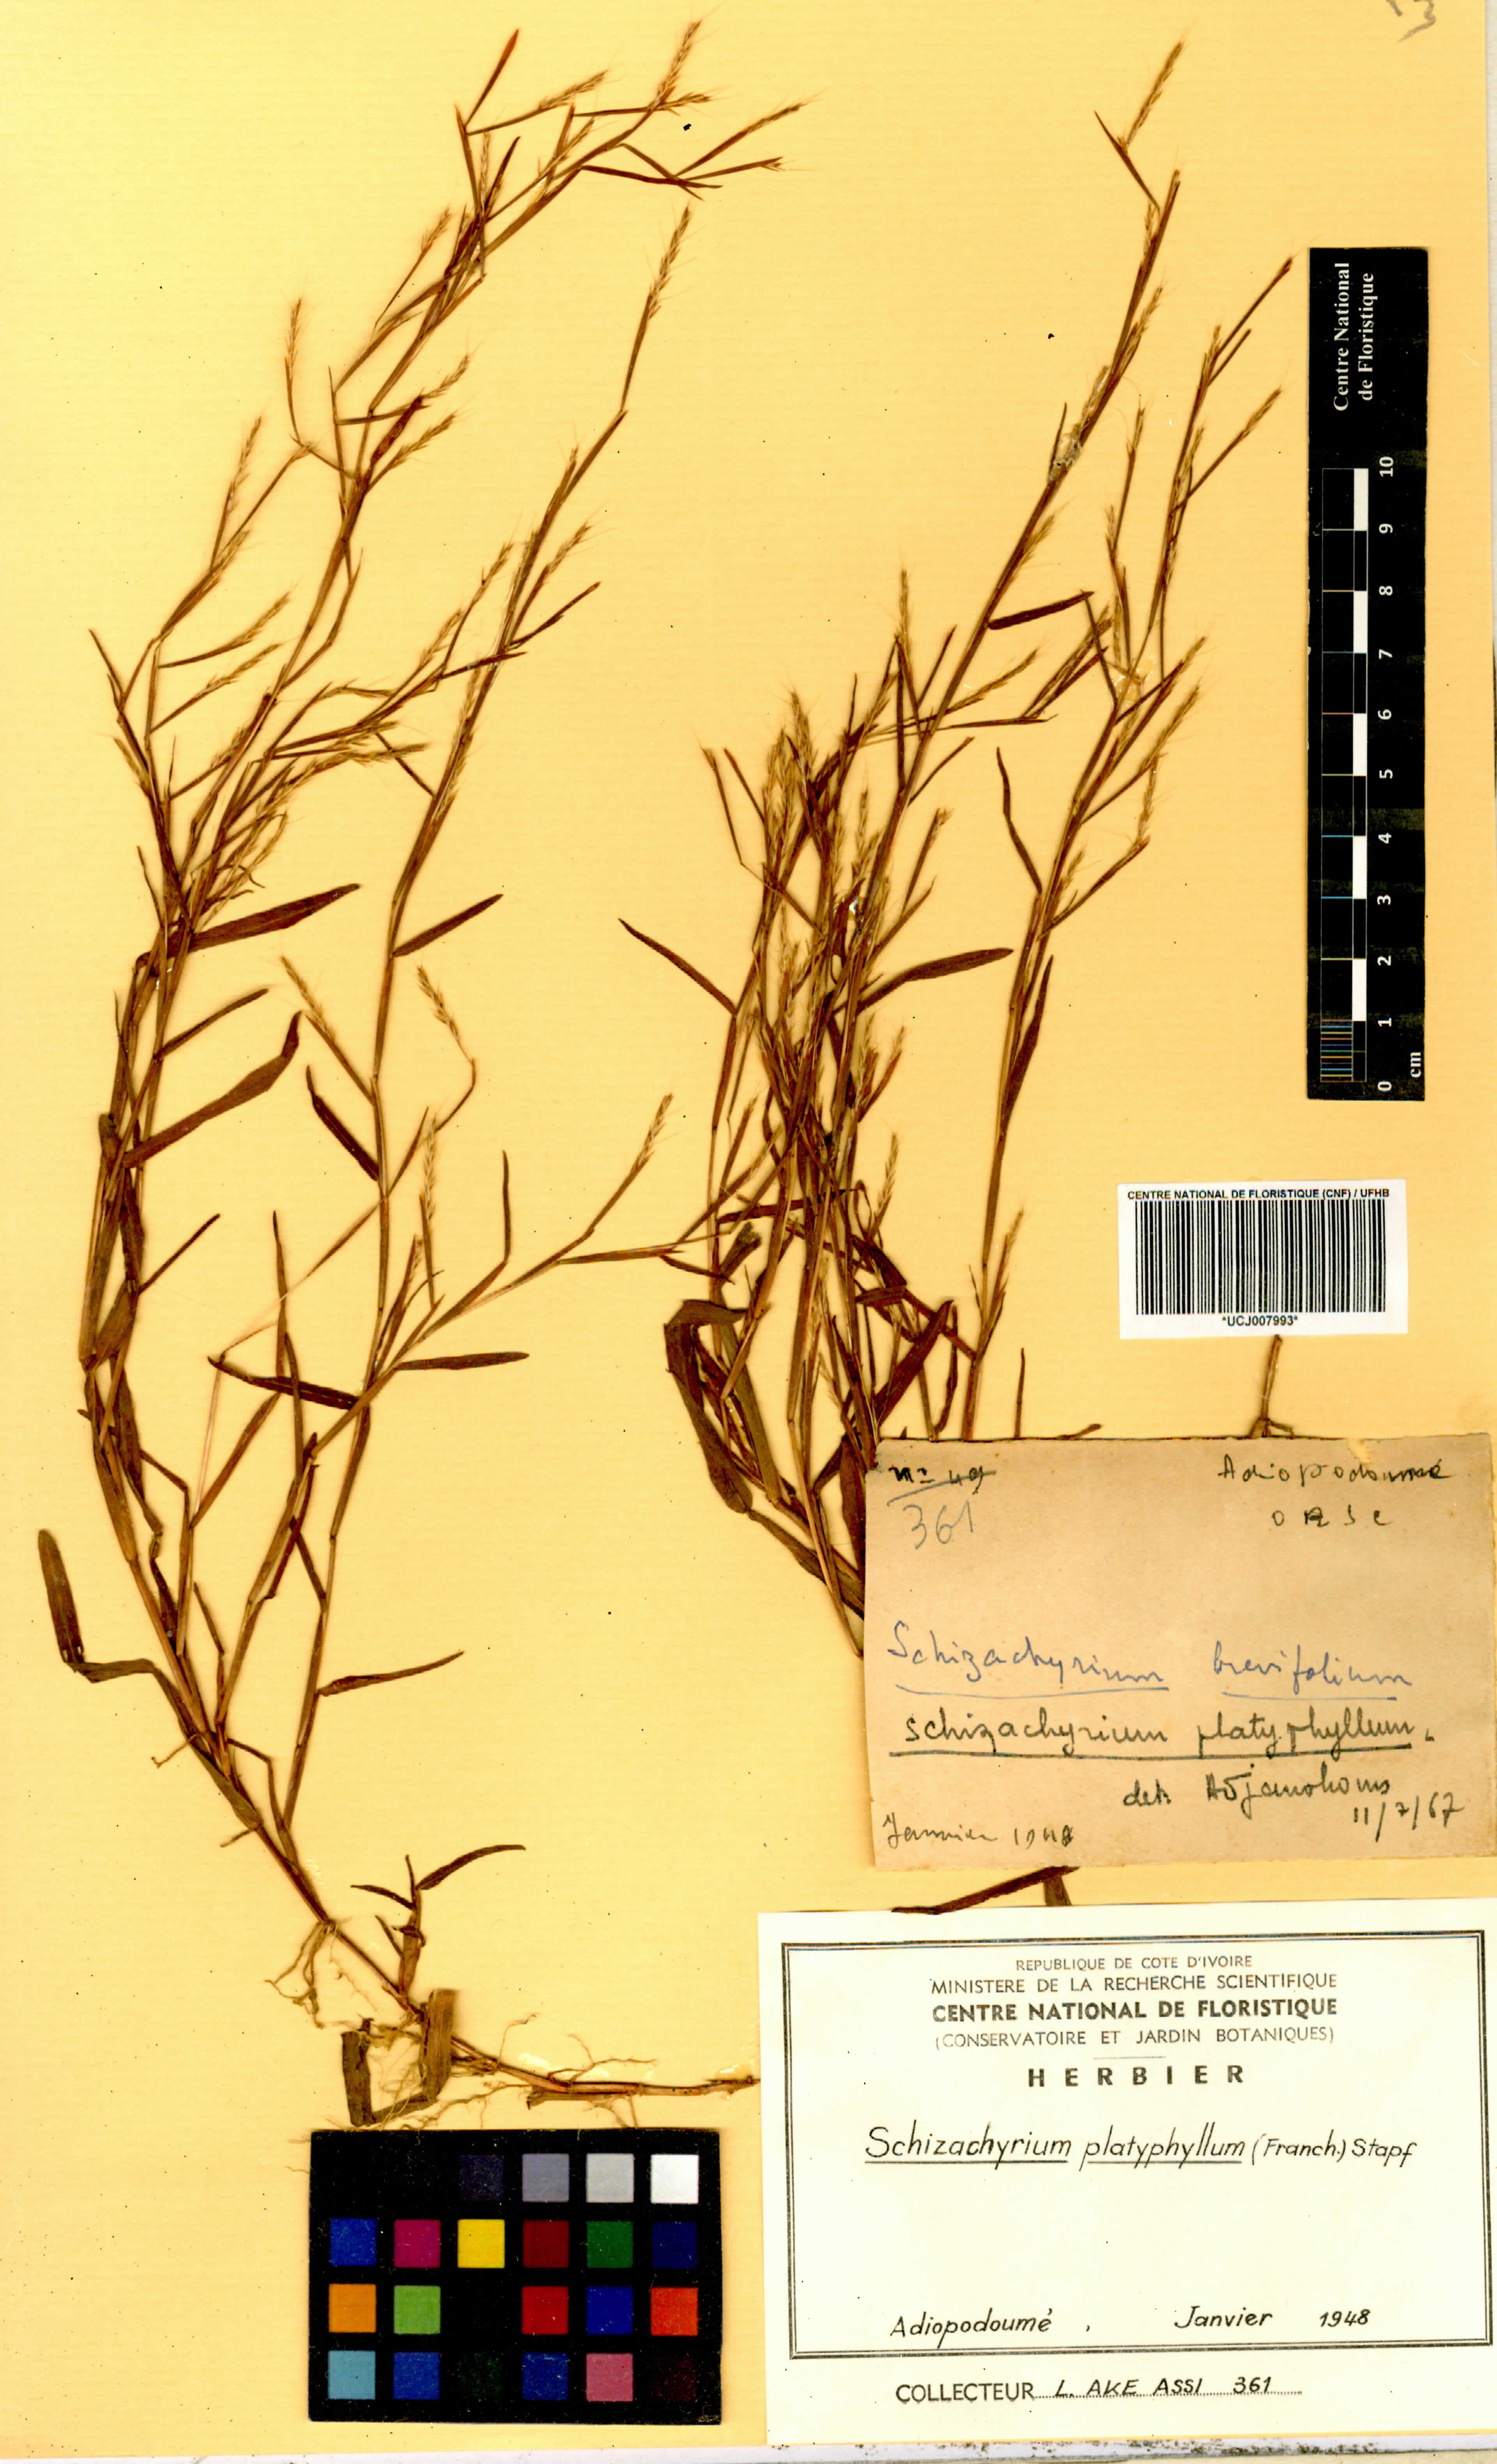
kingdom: Plantae
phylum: Tracheophyta
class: Liliopsida
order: Poales
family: Poaceae
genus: Schizachyrium
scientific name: Schizachyrium platyphyllum
